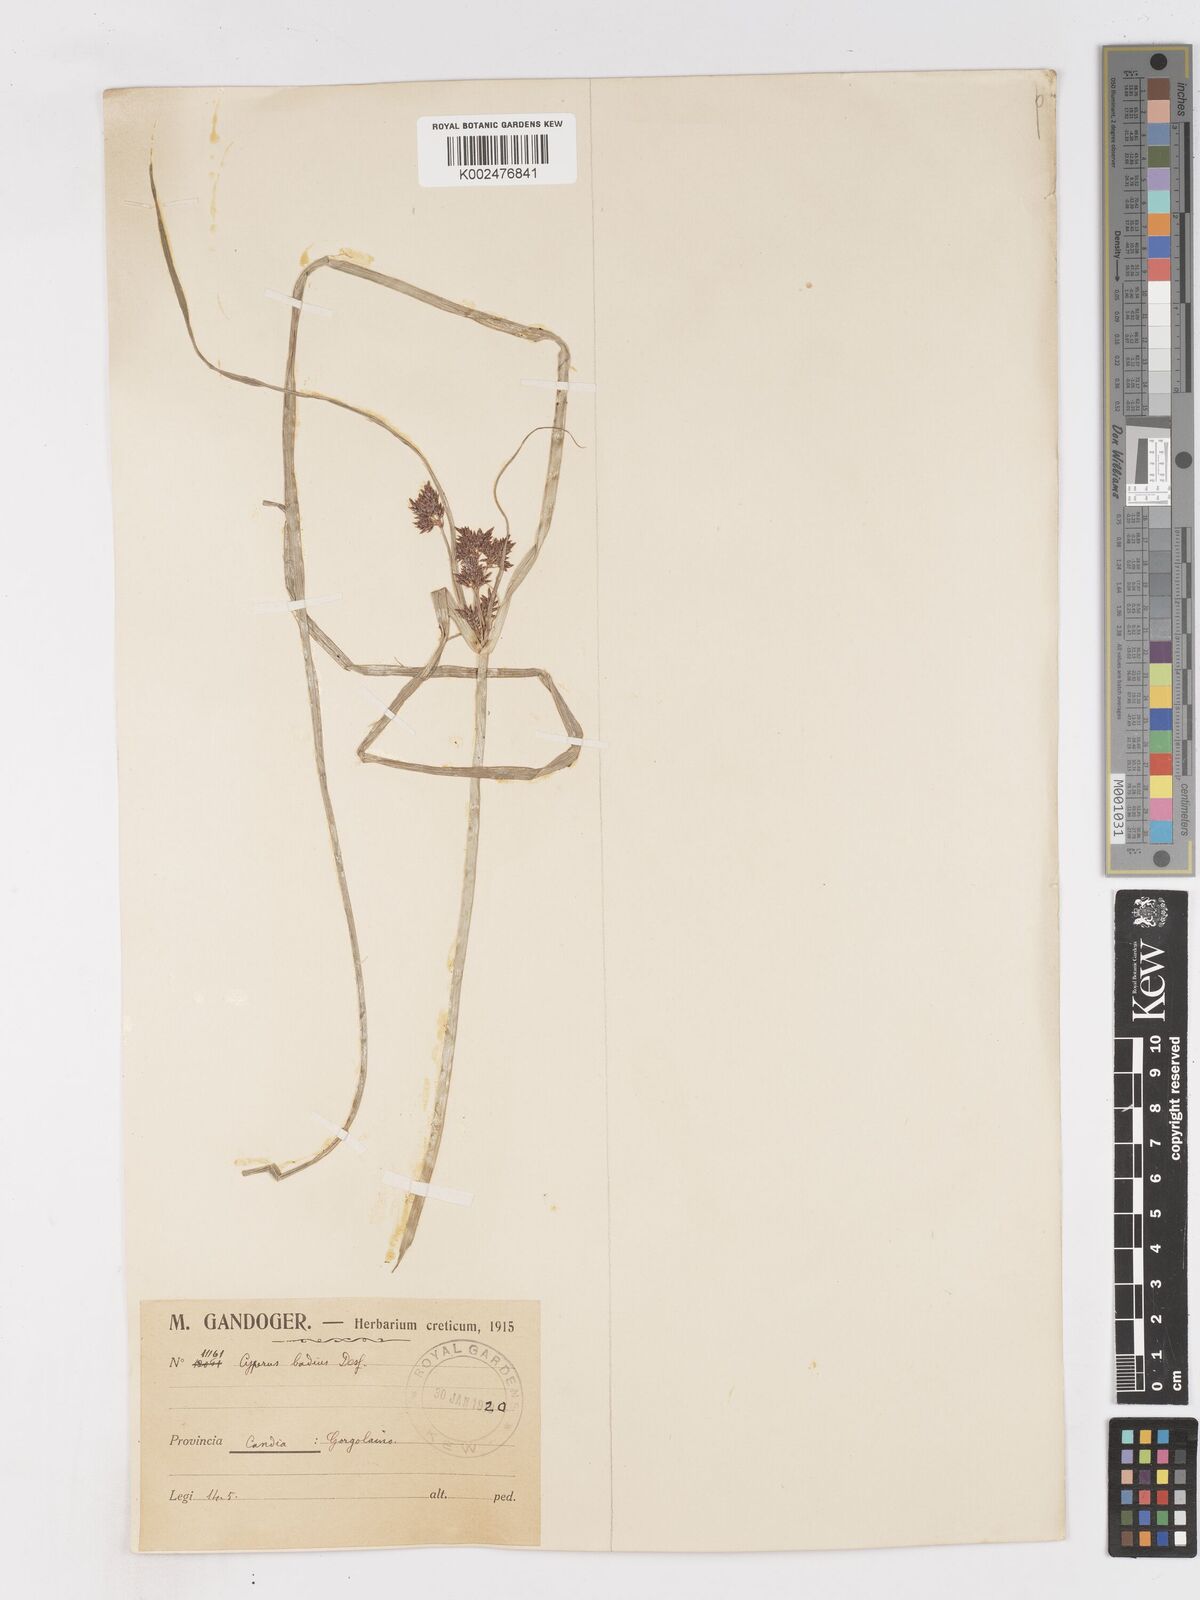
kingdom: Plantae
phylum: Tracheophyta
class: Liliopsida
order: Poales
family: Cyperaceae
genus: Cyperus
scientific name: Cyperus longus
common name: Galingale
